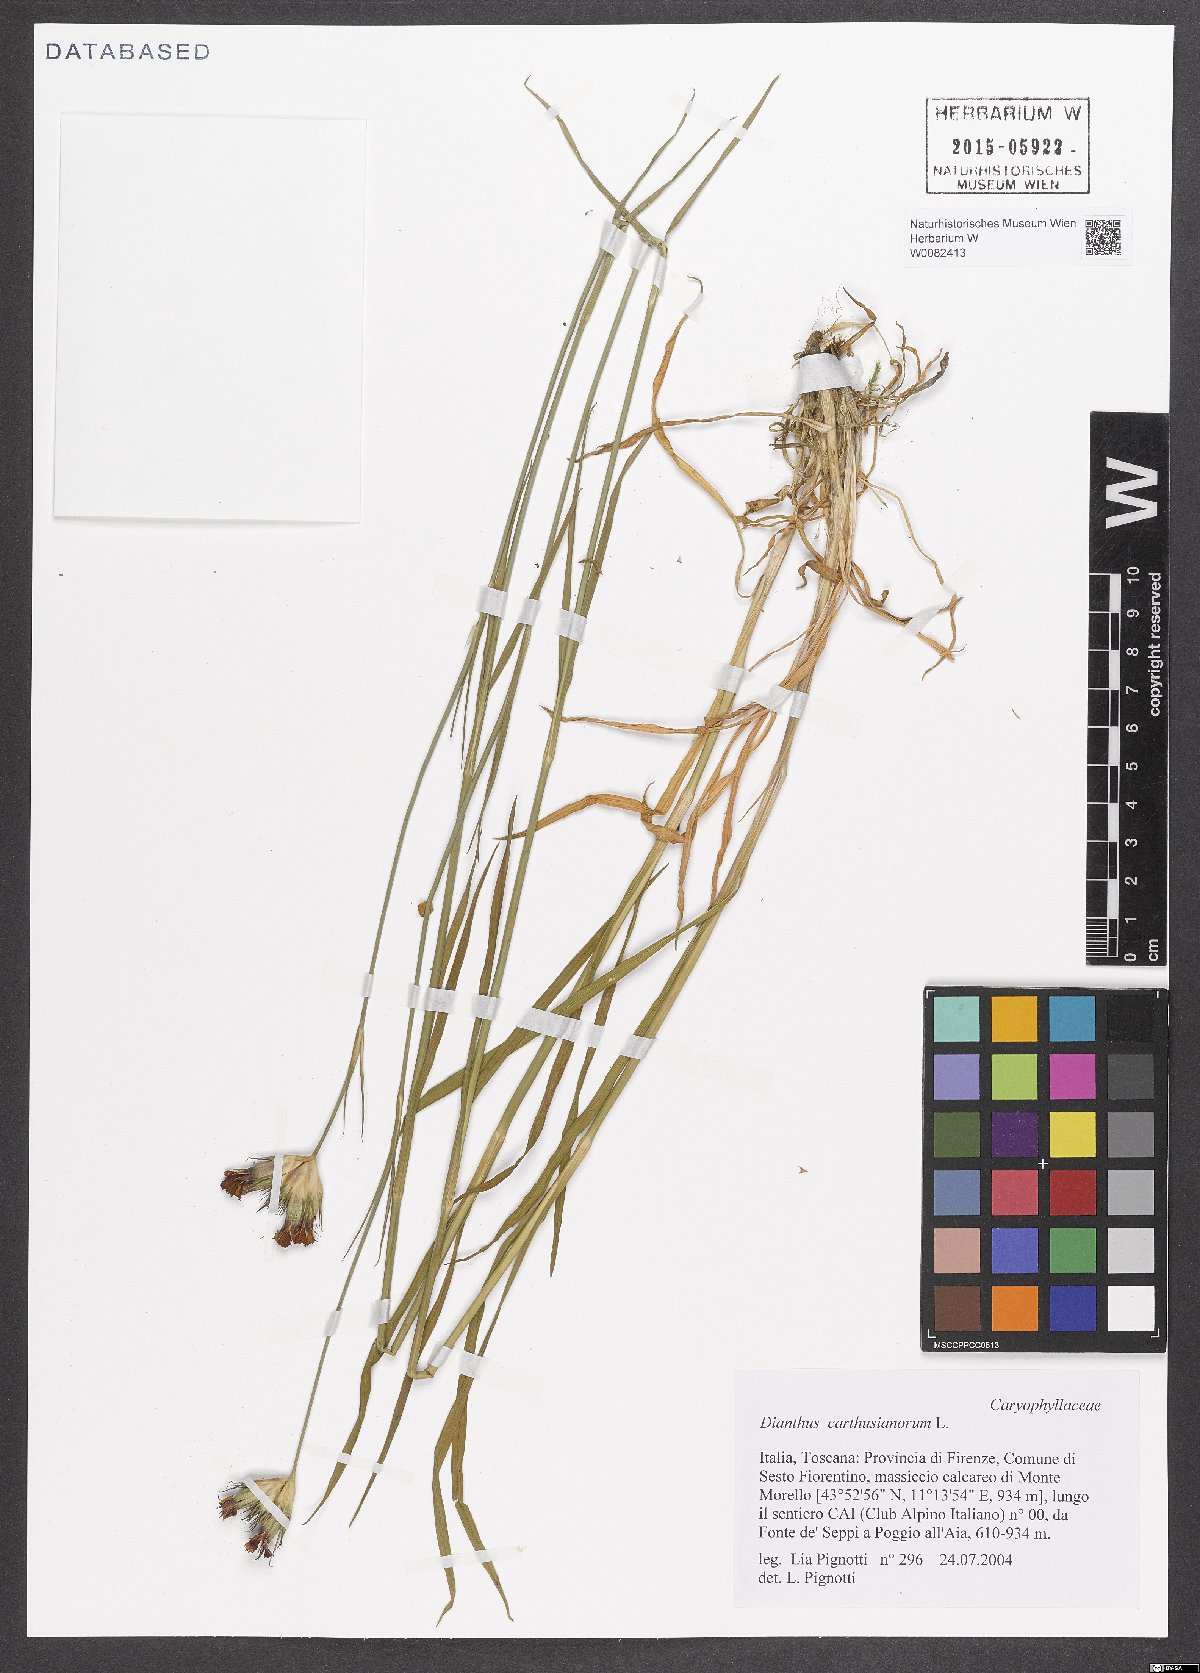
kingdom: Plantae
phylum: Tracheophyta
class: Magnoliopsida
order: Caryophyllales
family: Caryophyllaceae
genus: Dianthus
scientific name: Dianthus carthusianorum
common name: Carthusian pink
